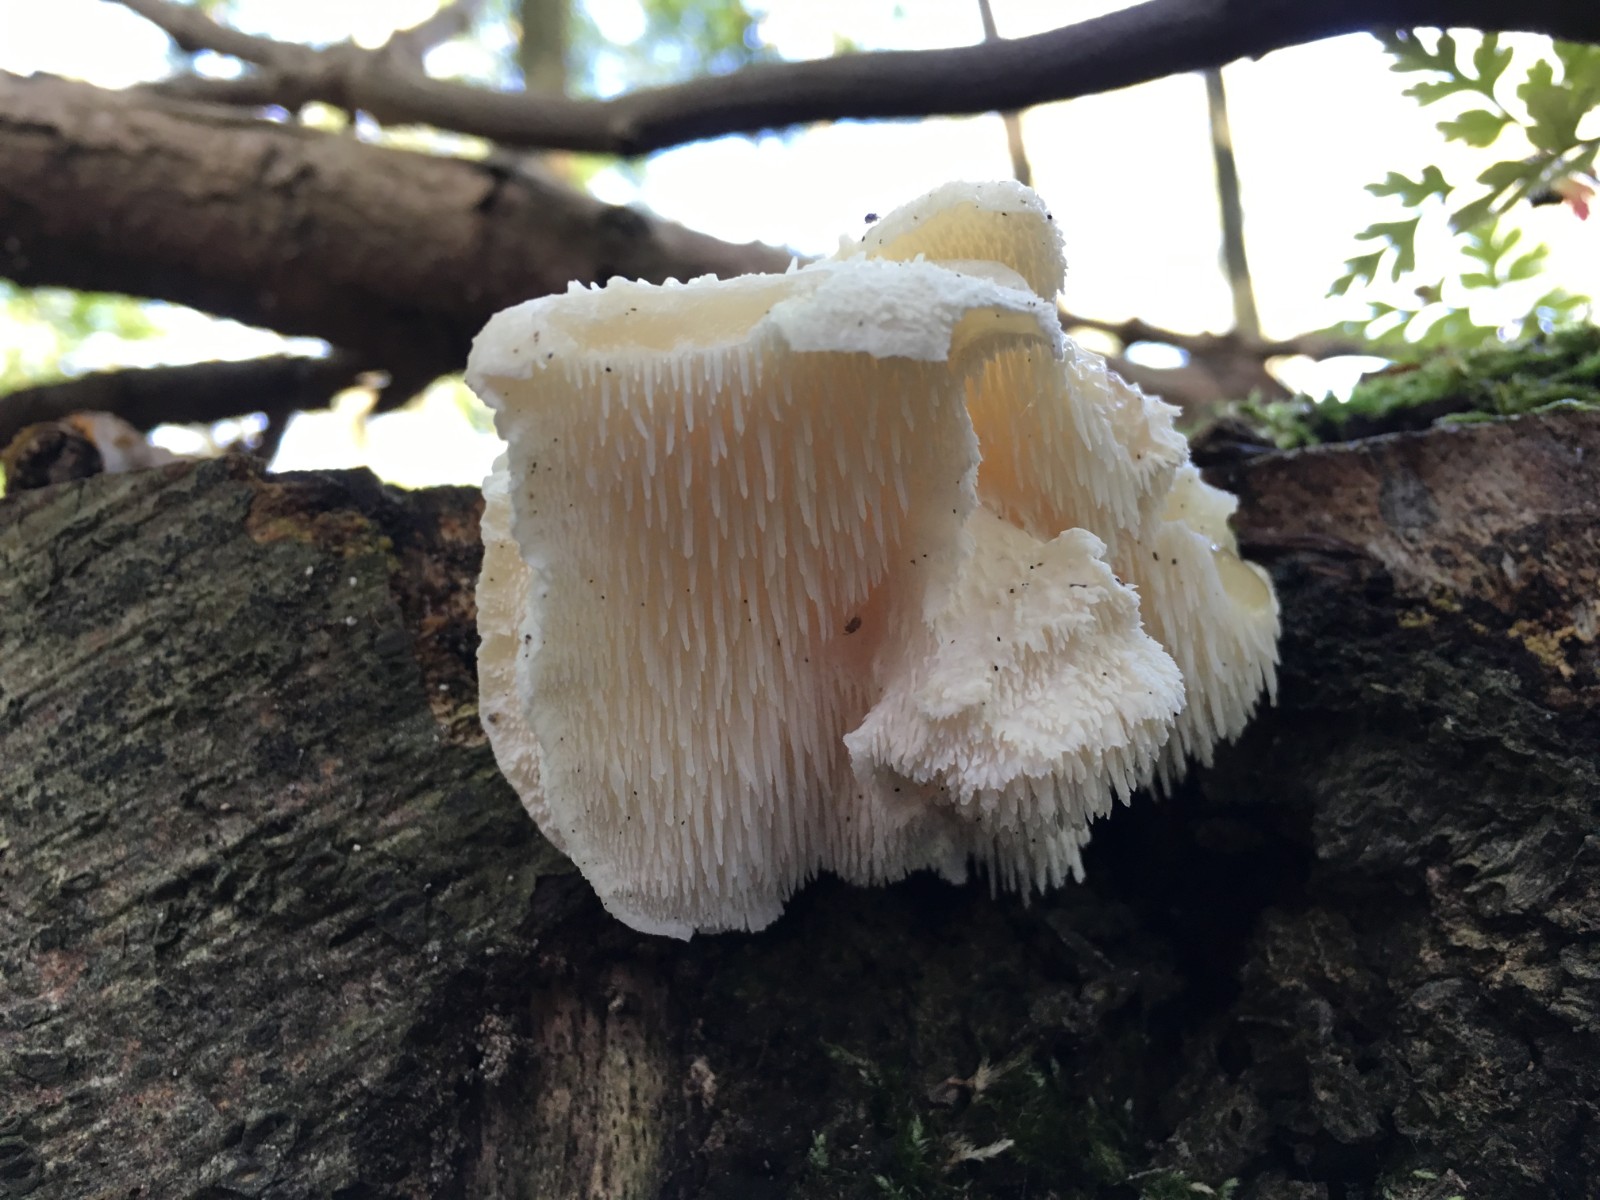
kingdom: Fungi
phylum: Basidiomycota
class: Agaricomycetes
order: Russulales
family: Hericiaceae
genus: Hericium
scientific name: Hericium cirrhatum
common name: børstepigsvamp
